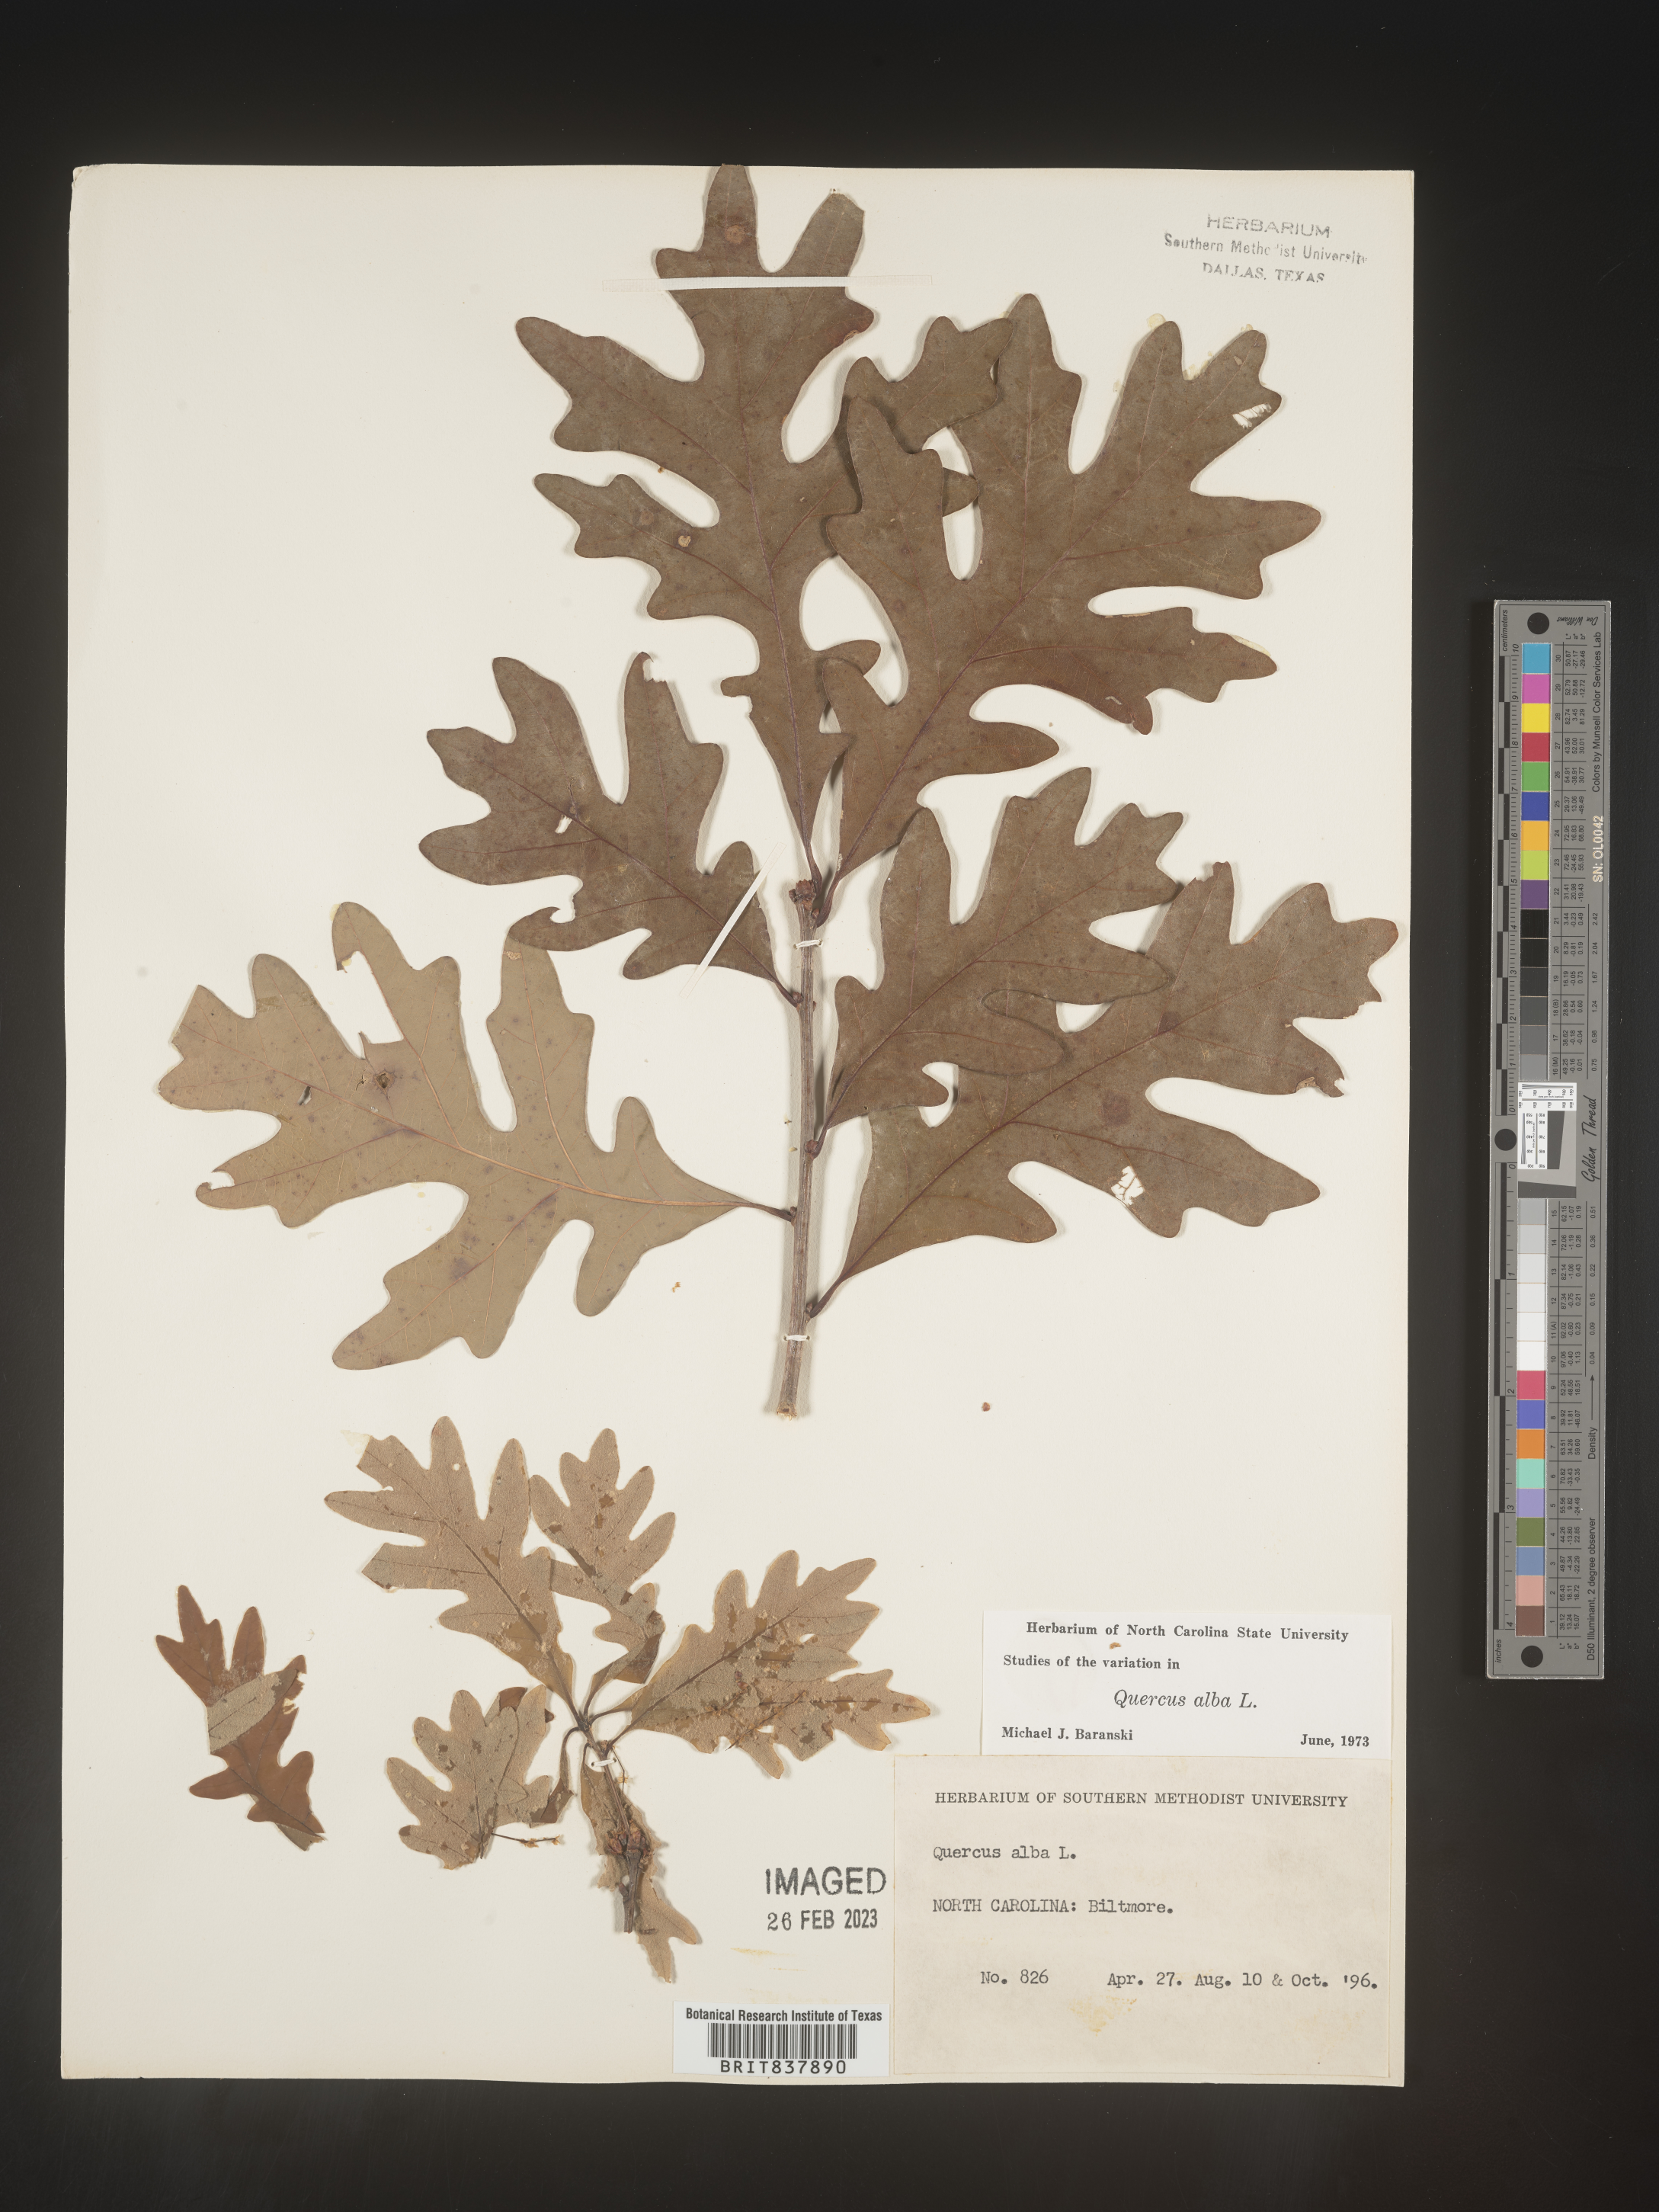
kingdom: Plantae
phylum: Tracheophyta
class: Magnoliopsida
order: Fagales
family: Fagaceae
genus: Quercus
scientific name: Quercus alba
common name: White oak
